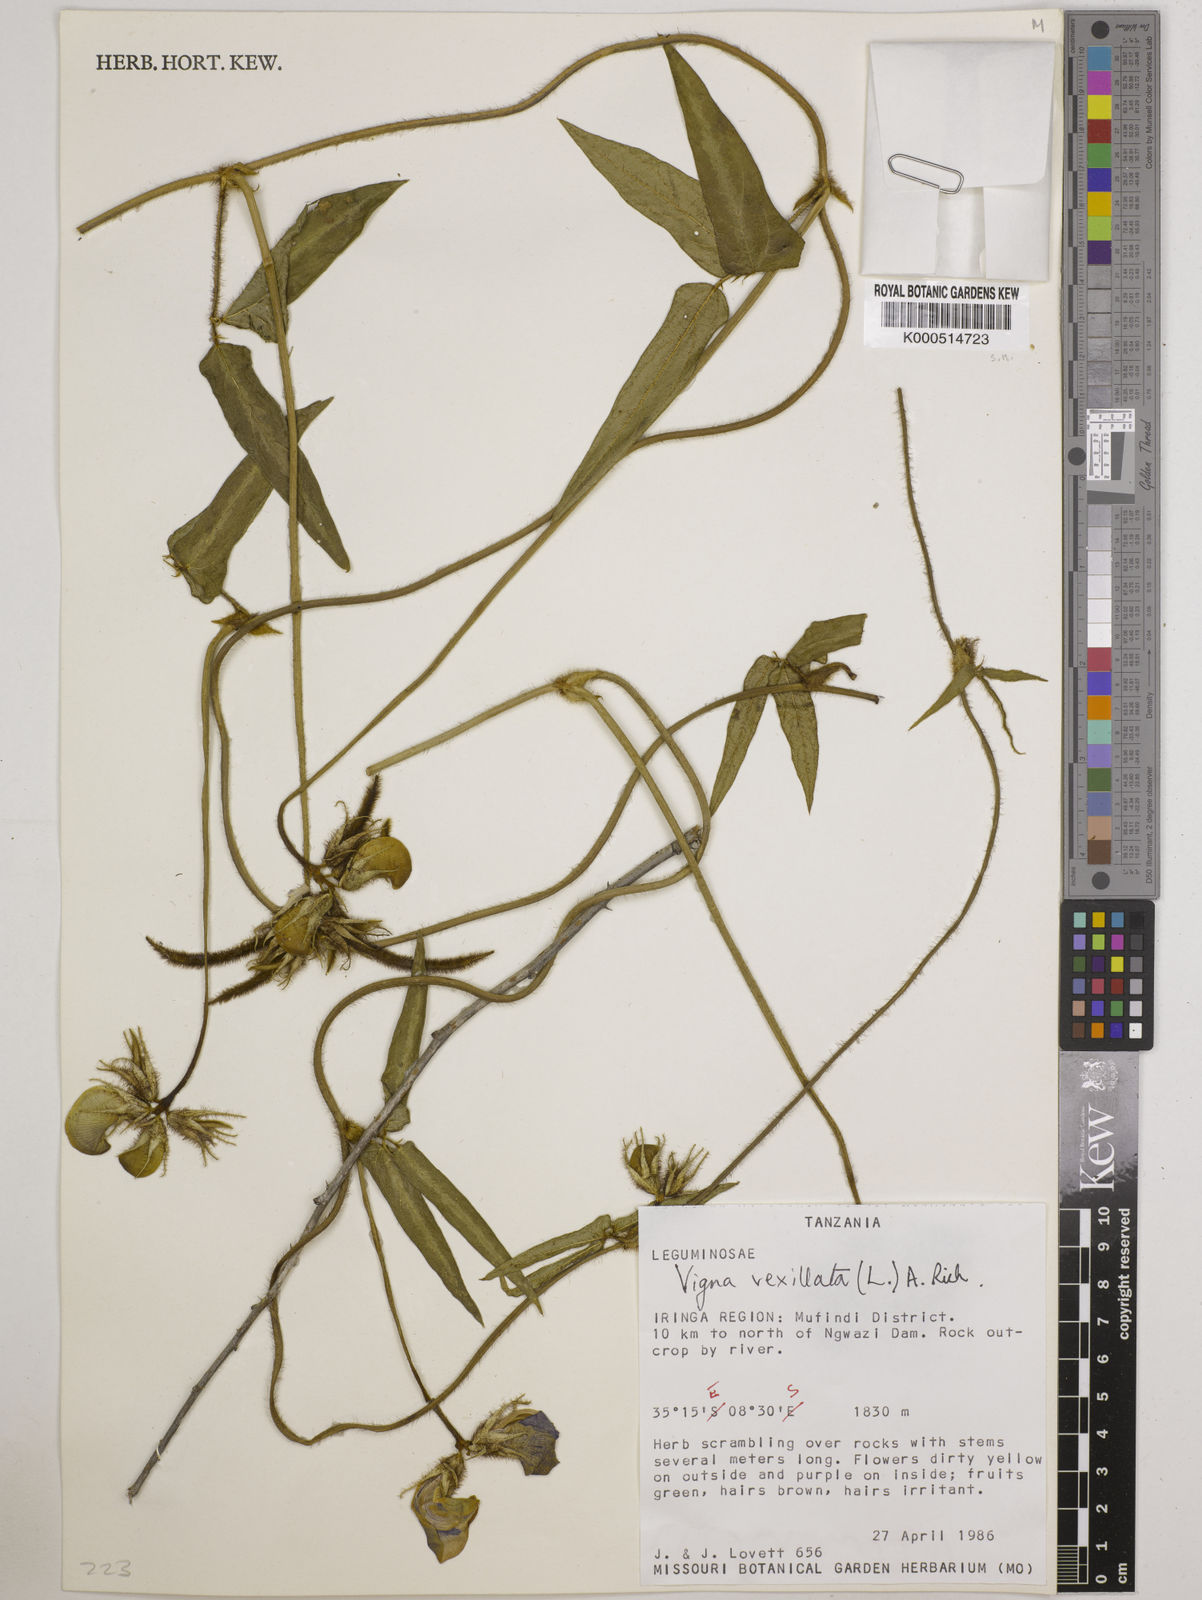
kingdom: Plantae
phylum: Tracheophyta
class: Magnoliopsida
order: Fabales
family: Fabaceae
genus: Vigna
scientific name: Vigna vexillata
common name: Zombi pea
